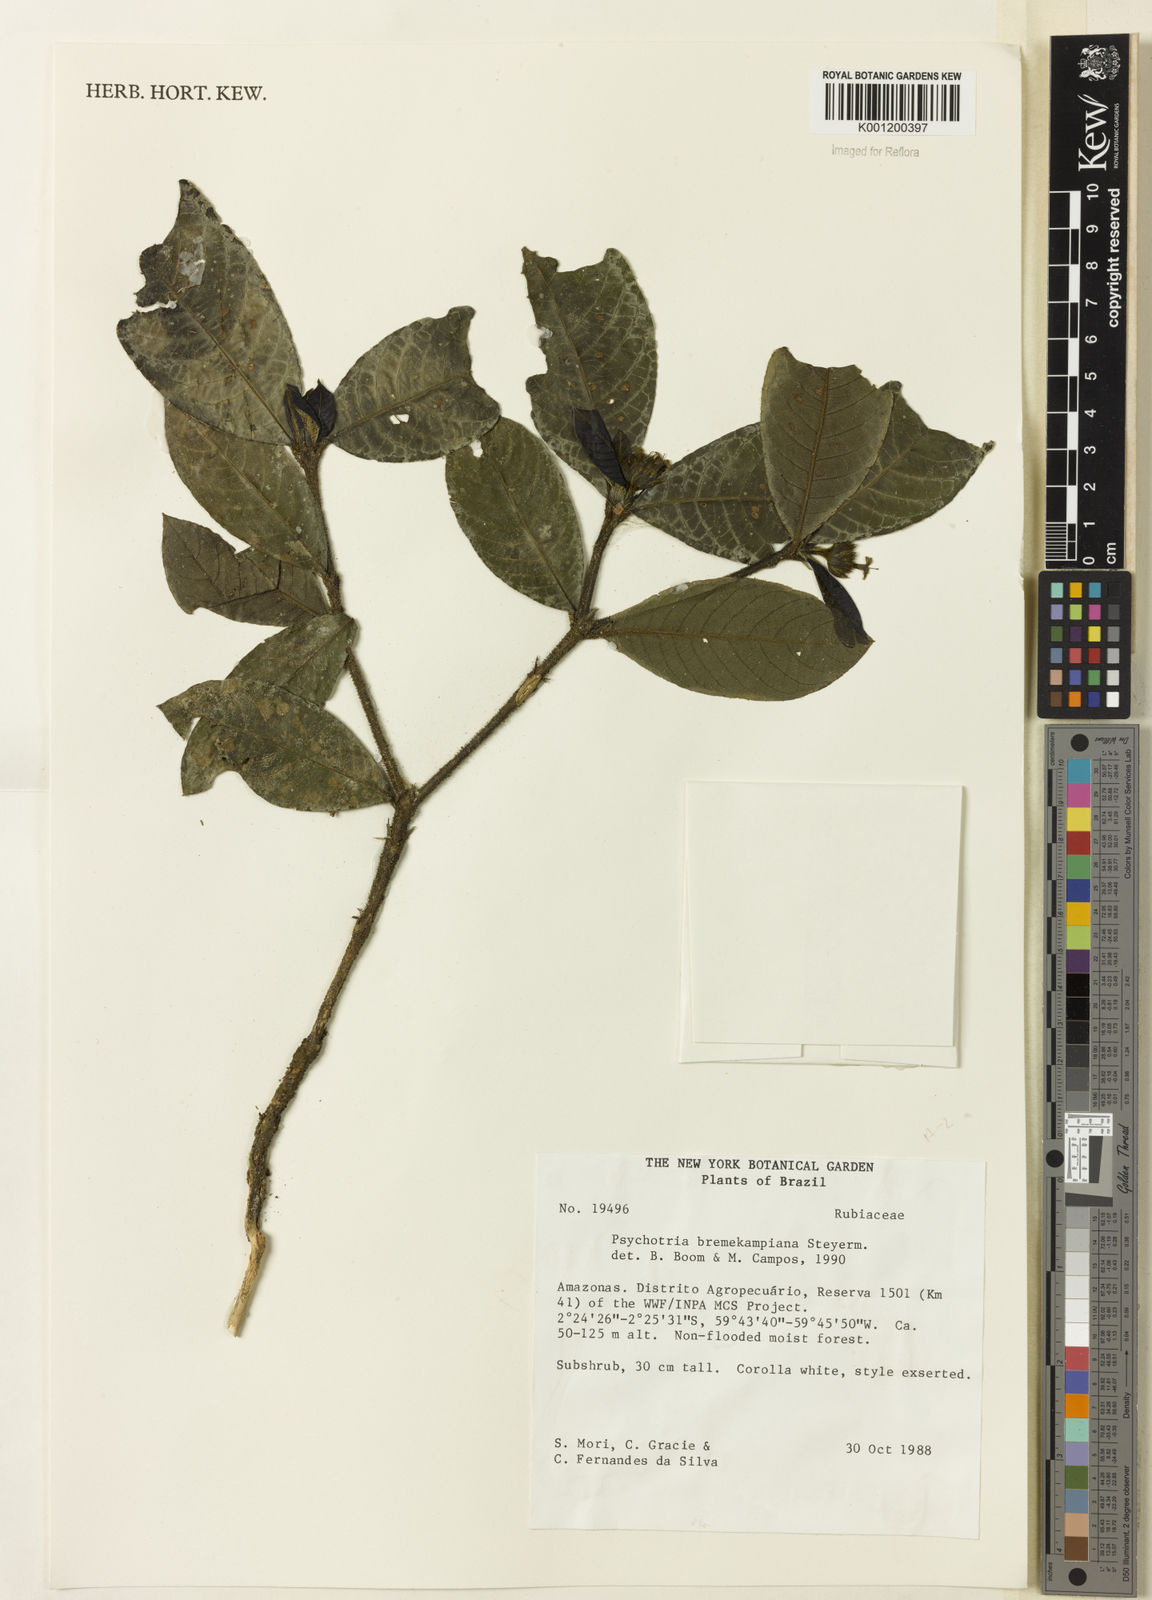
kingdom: Plantae
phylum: Tracheophyta
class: Magnoliopsida
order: Gentianales
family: Rubiaceae
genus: Palicourea
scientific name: Palicourea hirta
